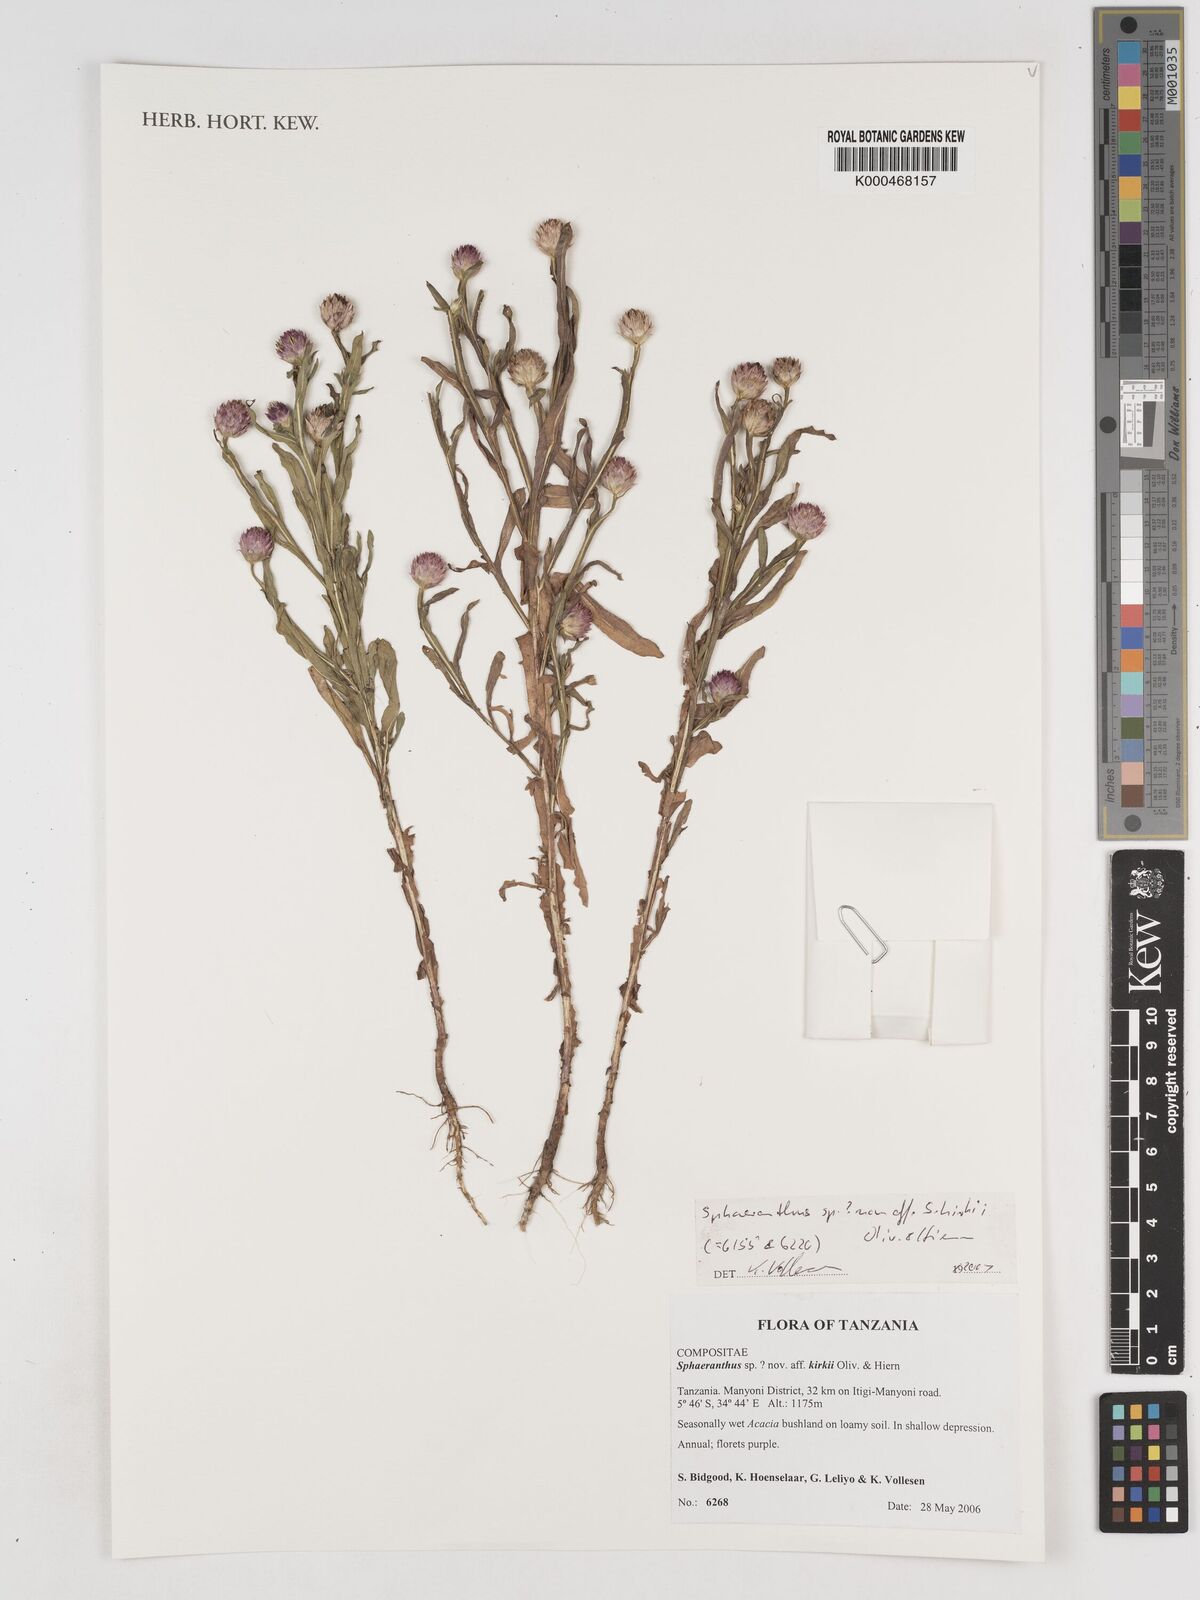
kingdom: Plantae
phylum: Tracheophyta
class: Magnoliopsida
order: Asterales
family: Asteraceae
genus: Sphaeranthus
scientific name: Sphaeranthus
